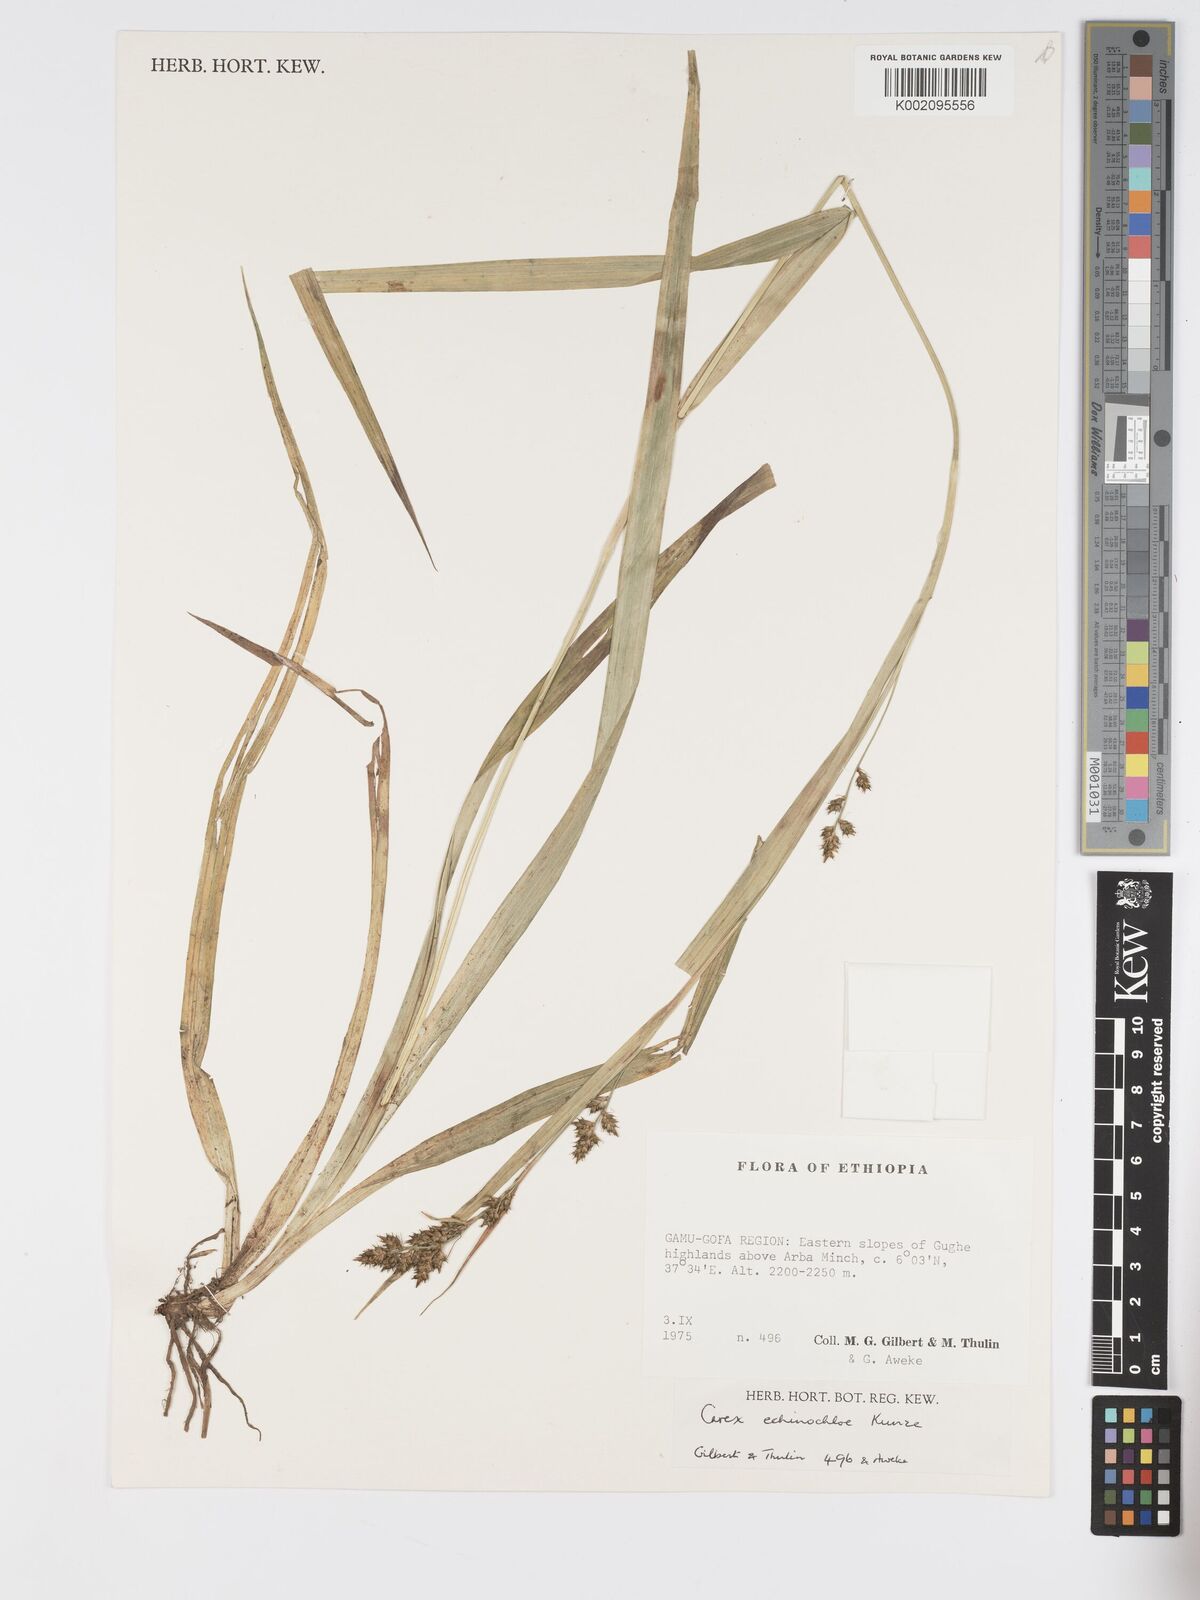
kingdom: Plantae
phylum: Tracheophyta
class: Liliopsida
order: Poales
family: Cyperaceae
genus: Carex
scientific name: Carex echinochloe
